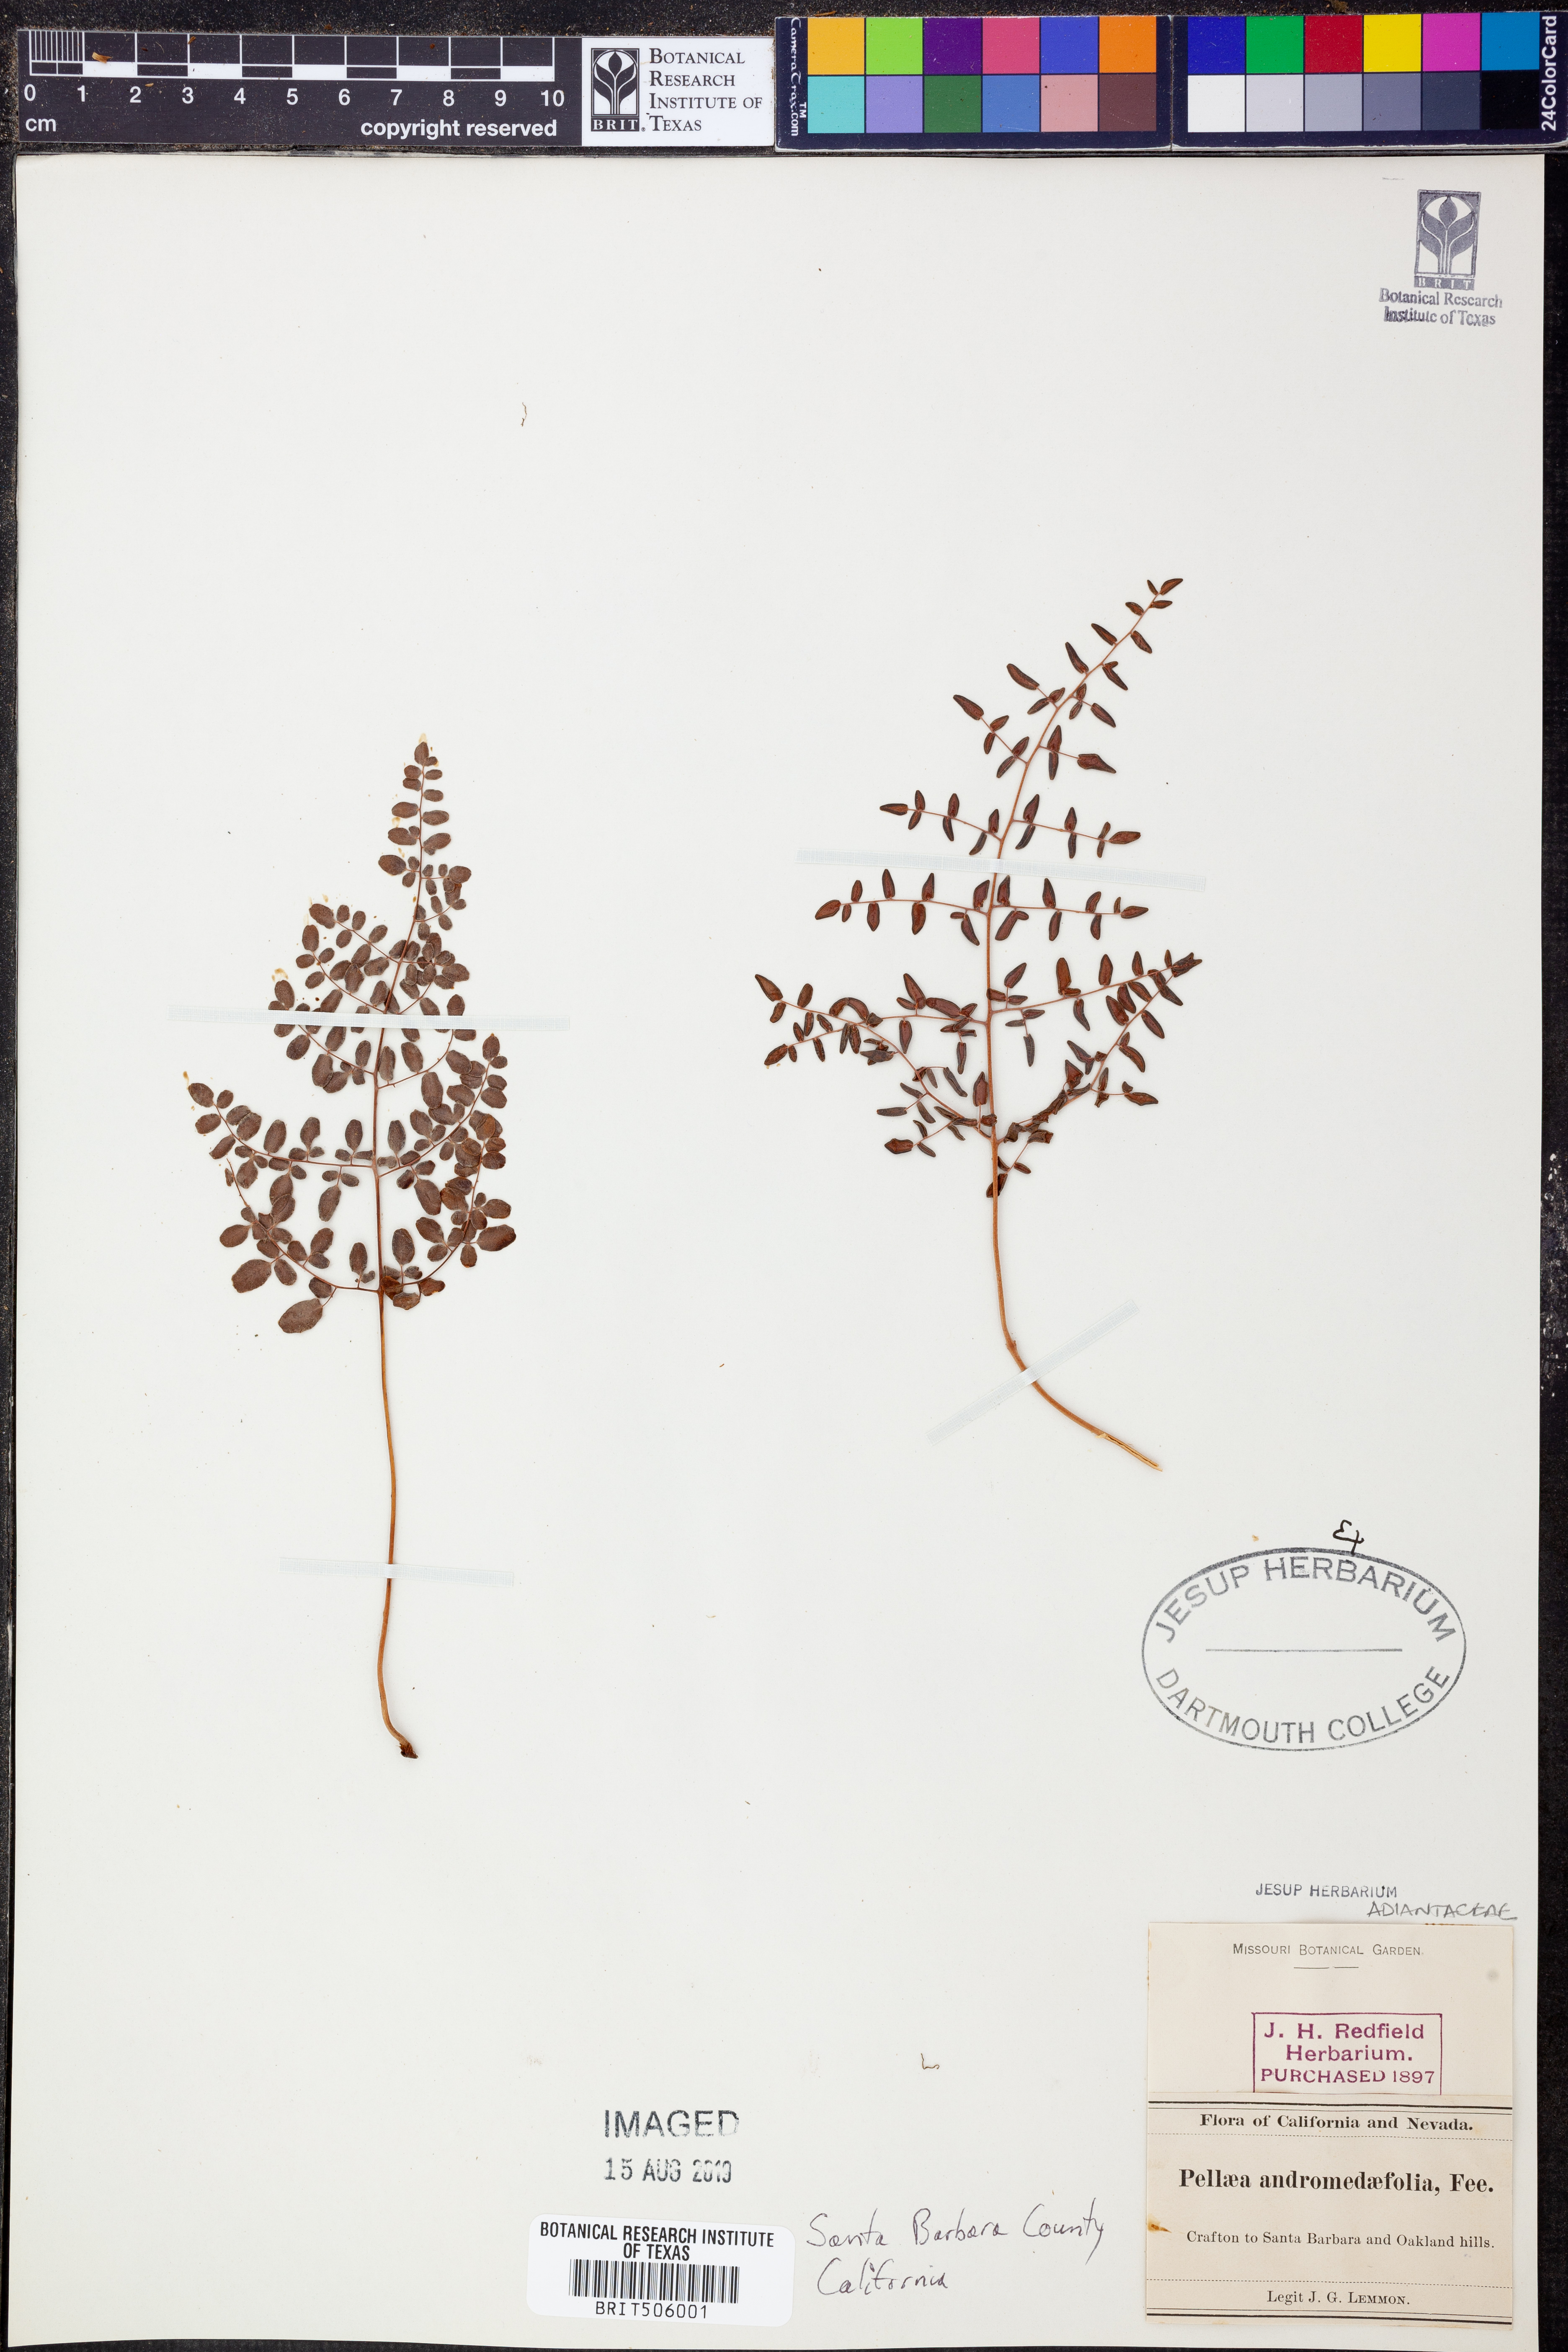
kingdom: Plantae
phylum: Tracheophyta
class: Polypodiopsida
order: Polypodiales
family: Pteridaceae
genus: Pellaea
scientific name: Pellaea andromedifolia
